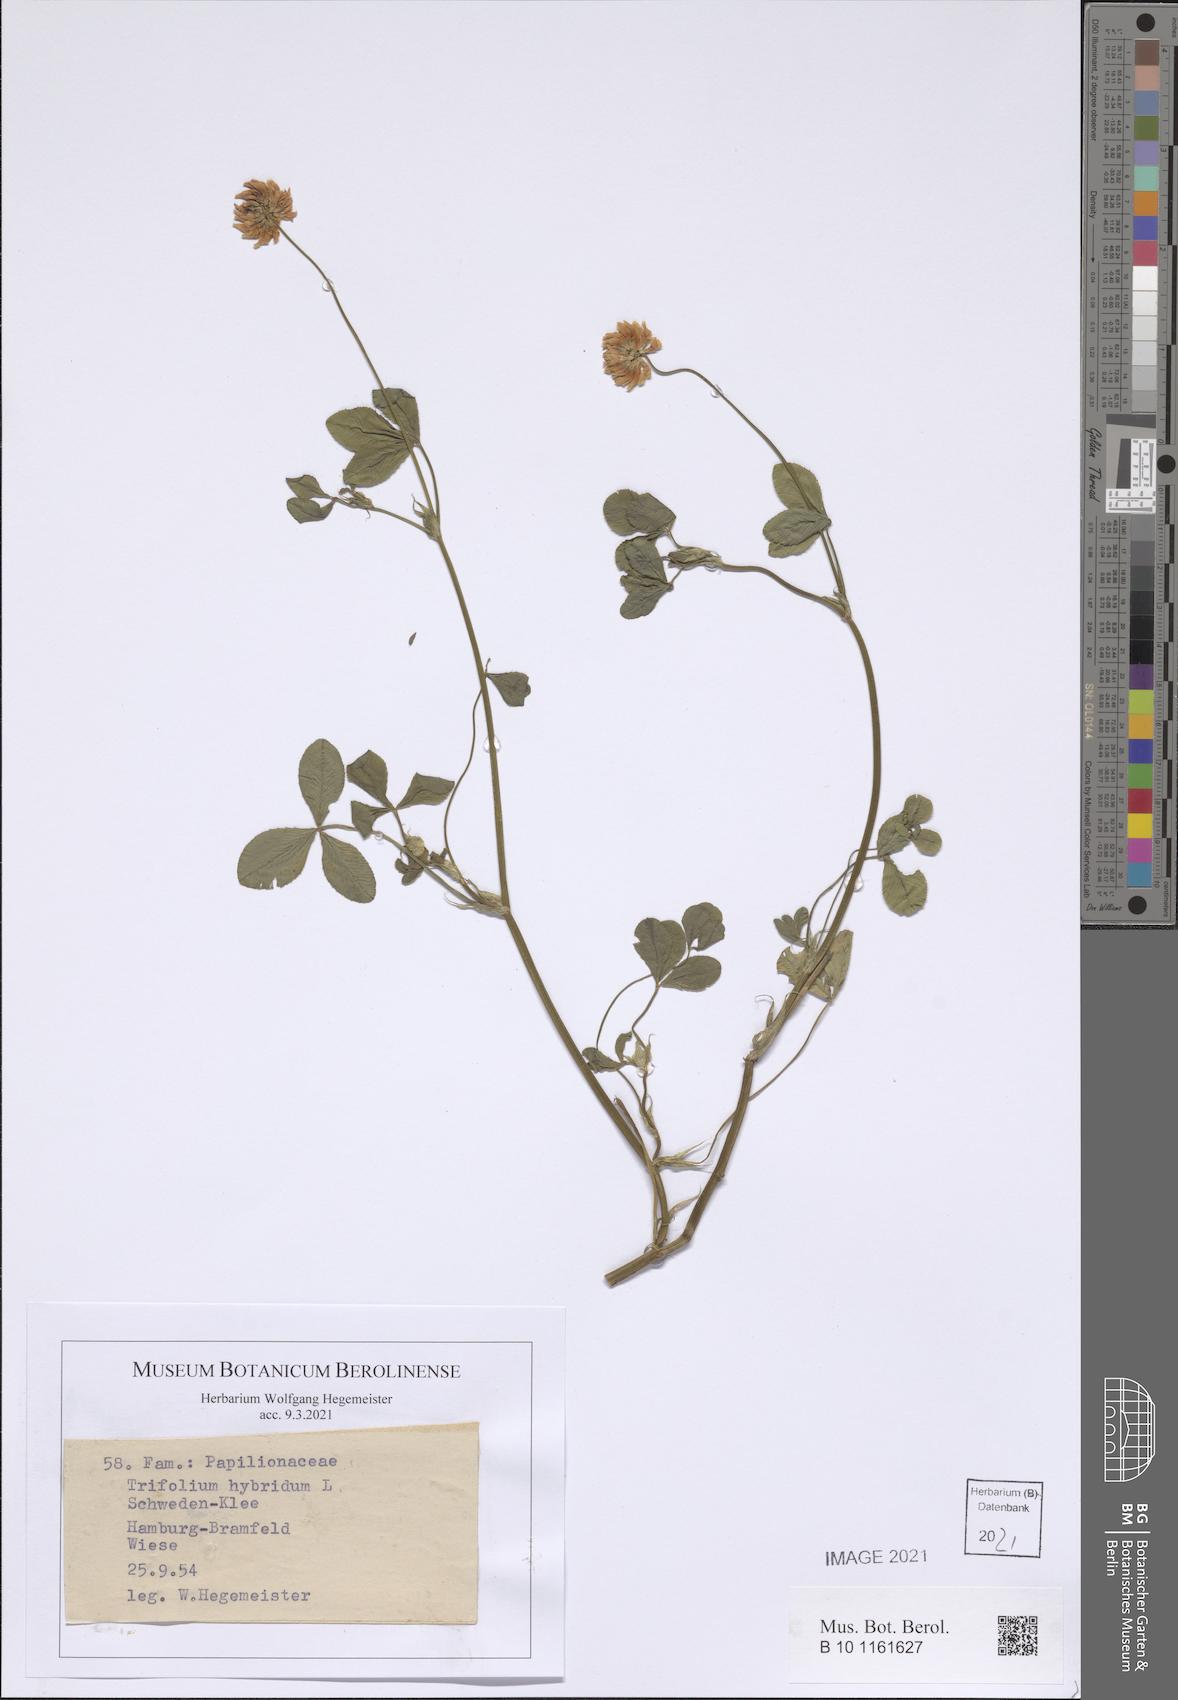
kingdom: Plantae
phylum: Tracheophyta
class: Magnoliopsida
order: Fabales
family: Fabaceae
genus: Trifolium
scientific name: Trifolium hybridum
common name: Alsike clover
